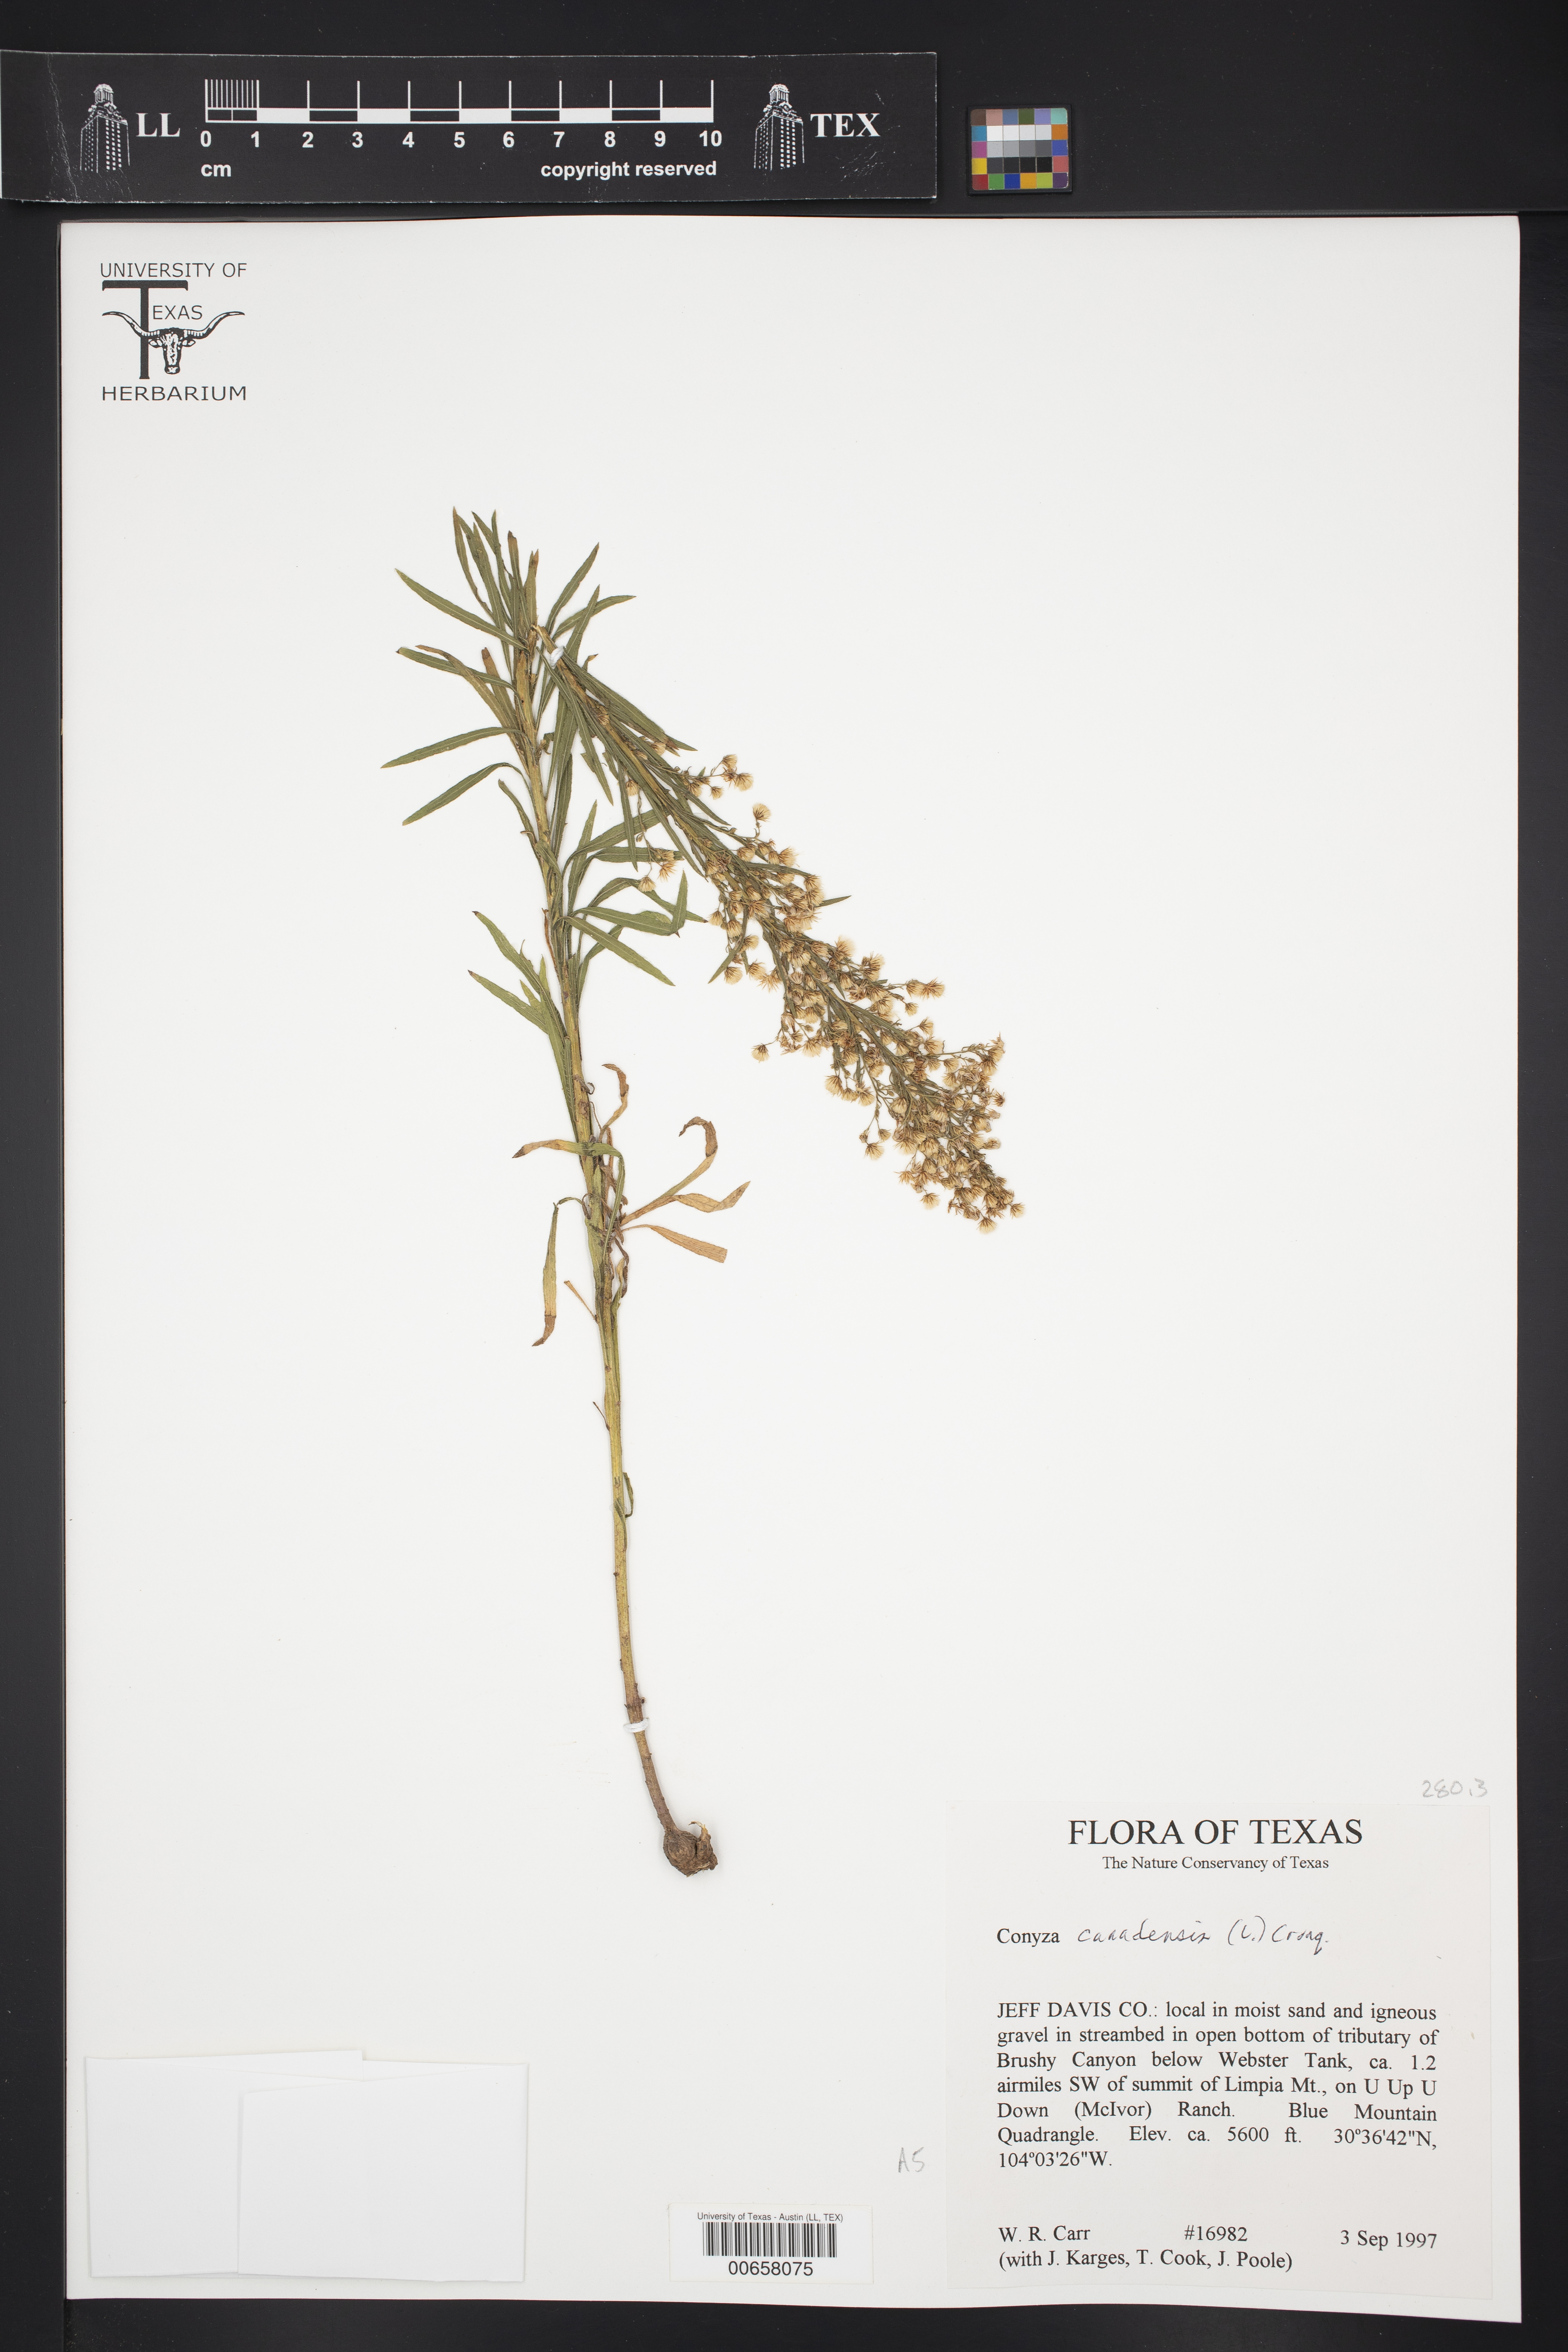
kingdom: Plantae
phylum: Tracheophyta
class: Magnoliopsida
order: Asterales
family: Asteraceae
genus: Erigeron
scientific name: Erigeron canadensis
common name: Canadian fleabane
